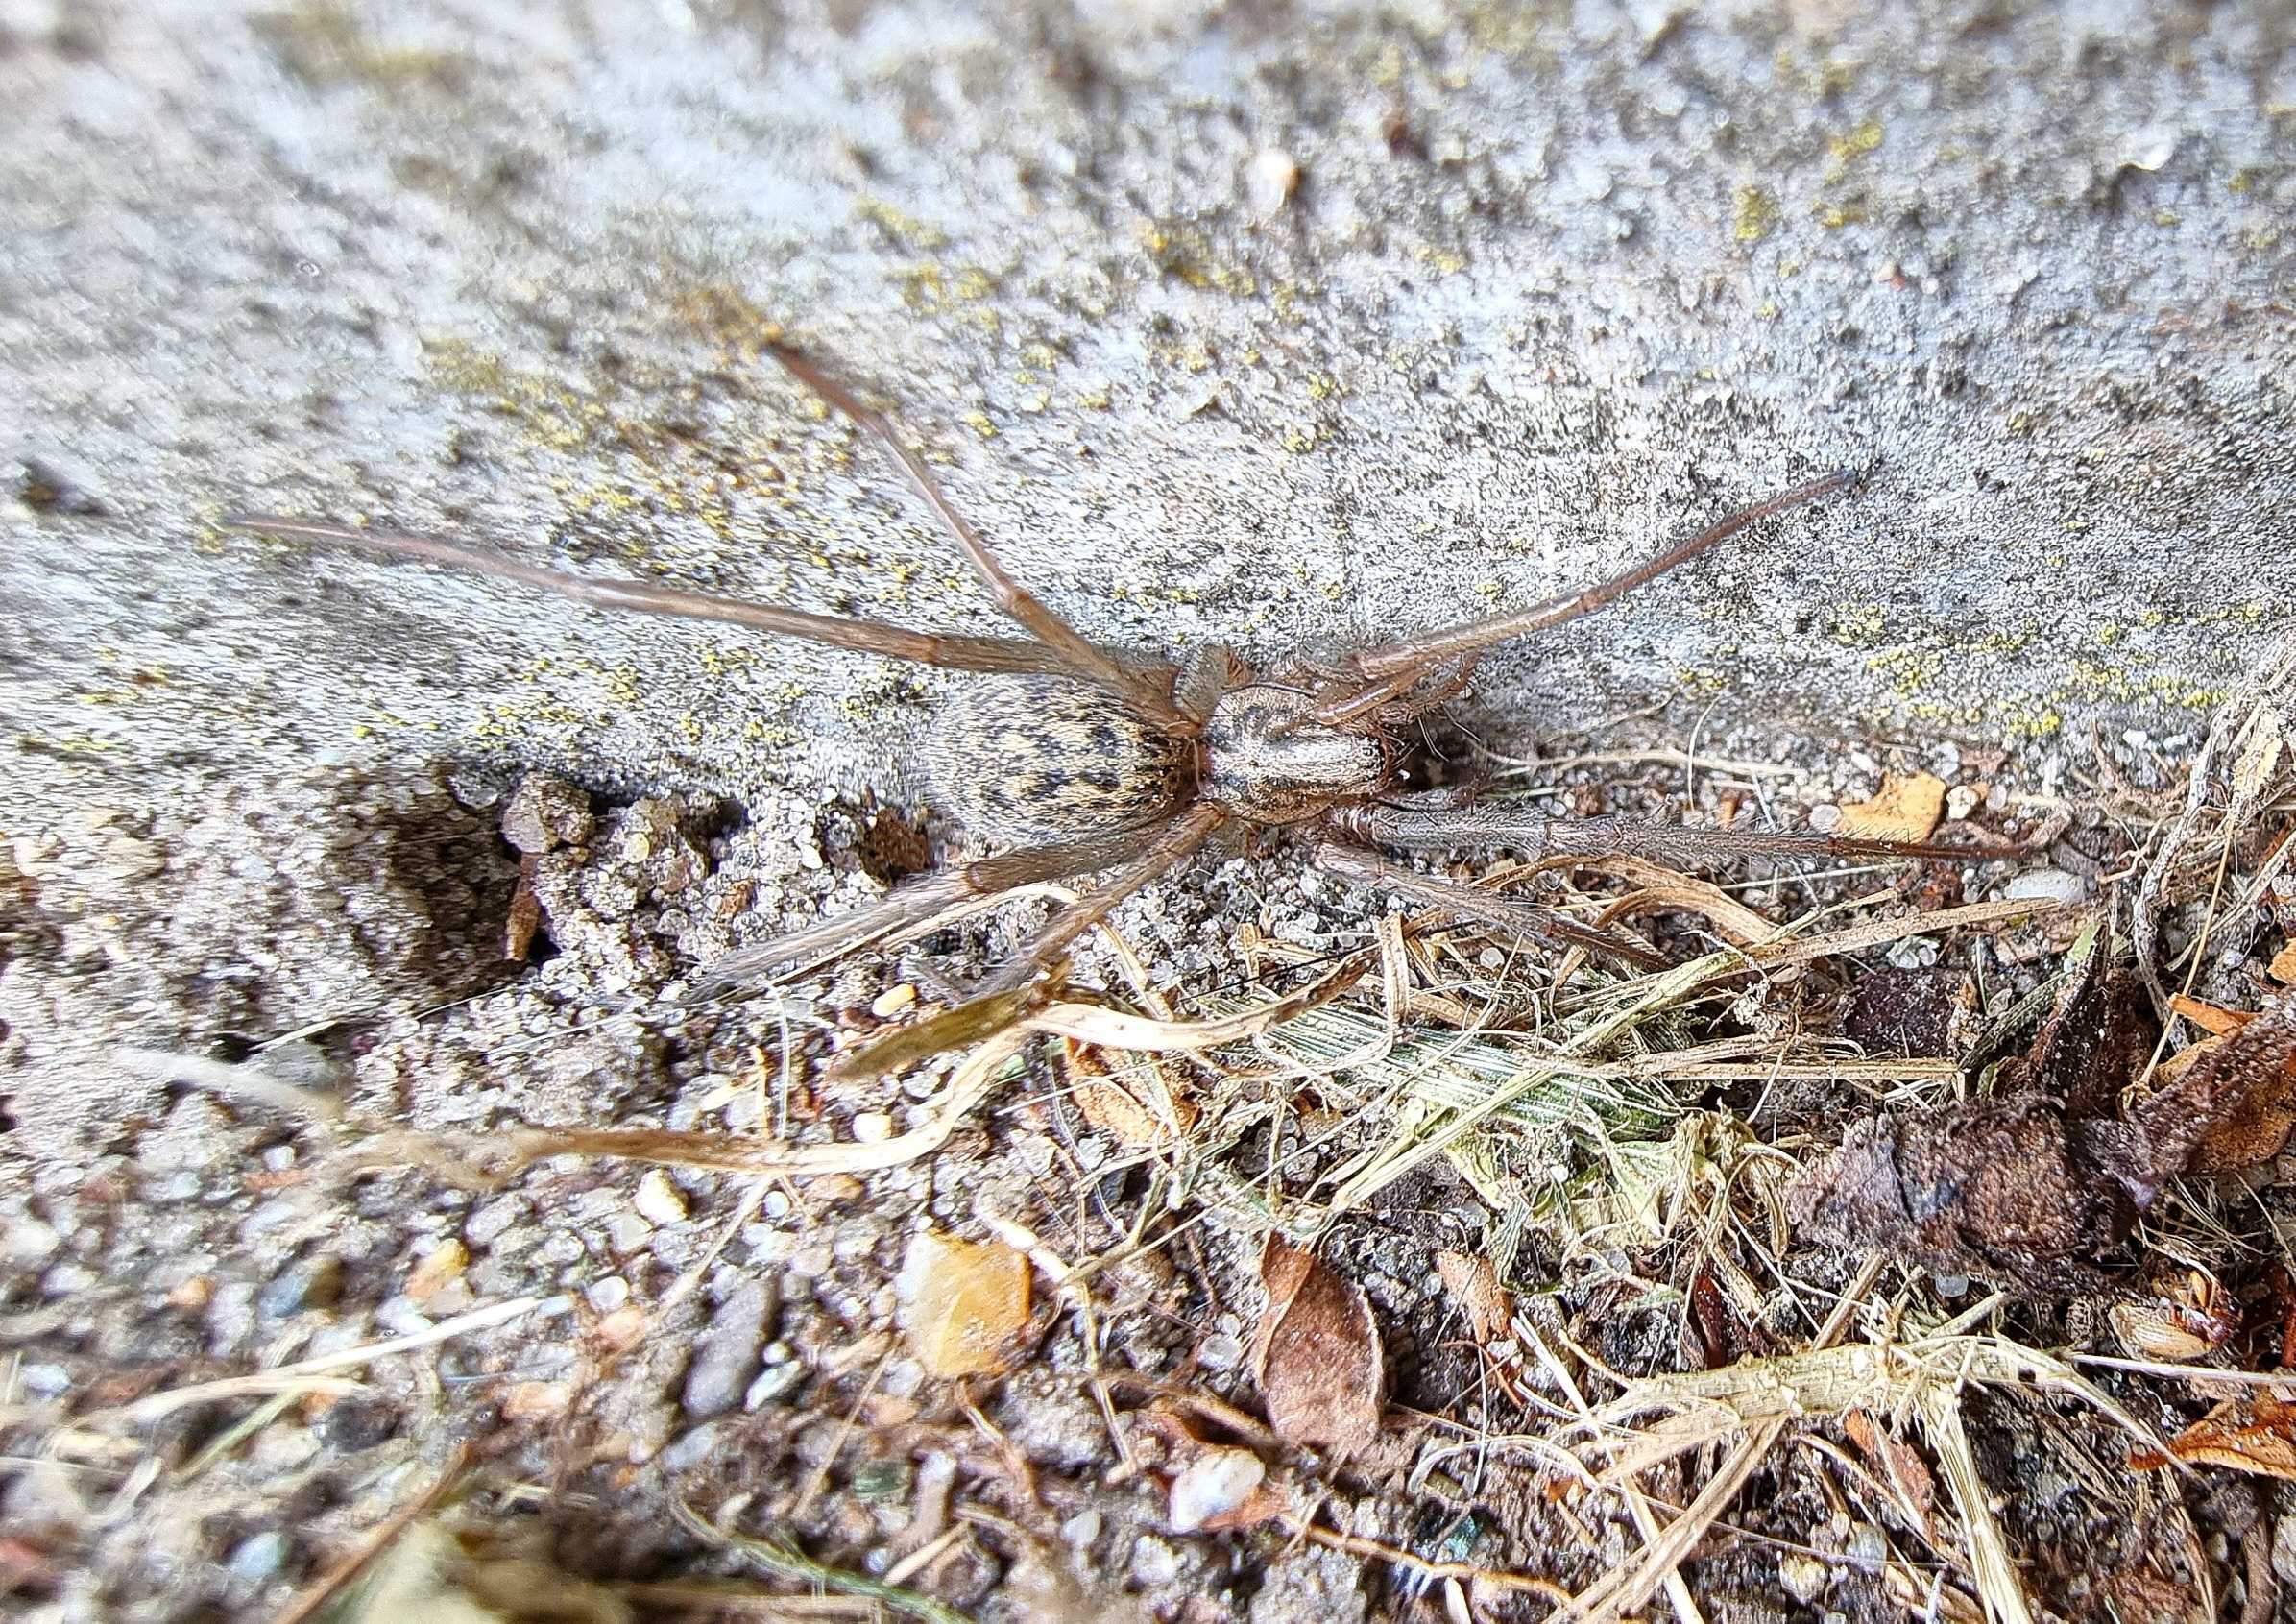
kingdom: Animalia
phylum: Arthropoda
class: Arachnida
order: Araneae
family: Agelenidae
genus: Eratigena
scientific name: Eratigena atrica
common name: Stor husedderkop
